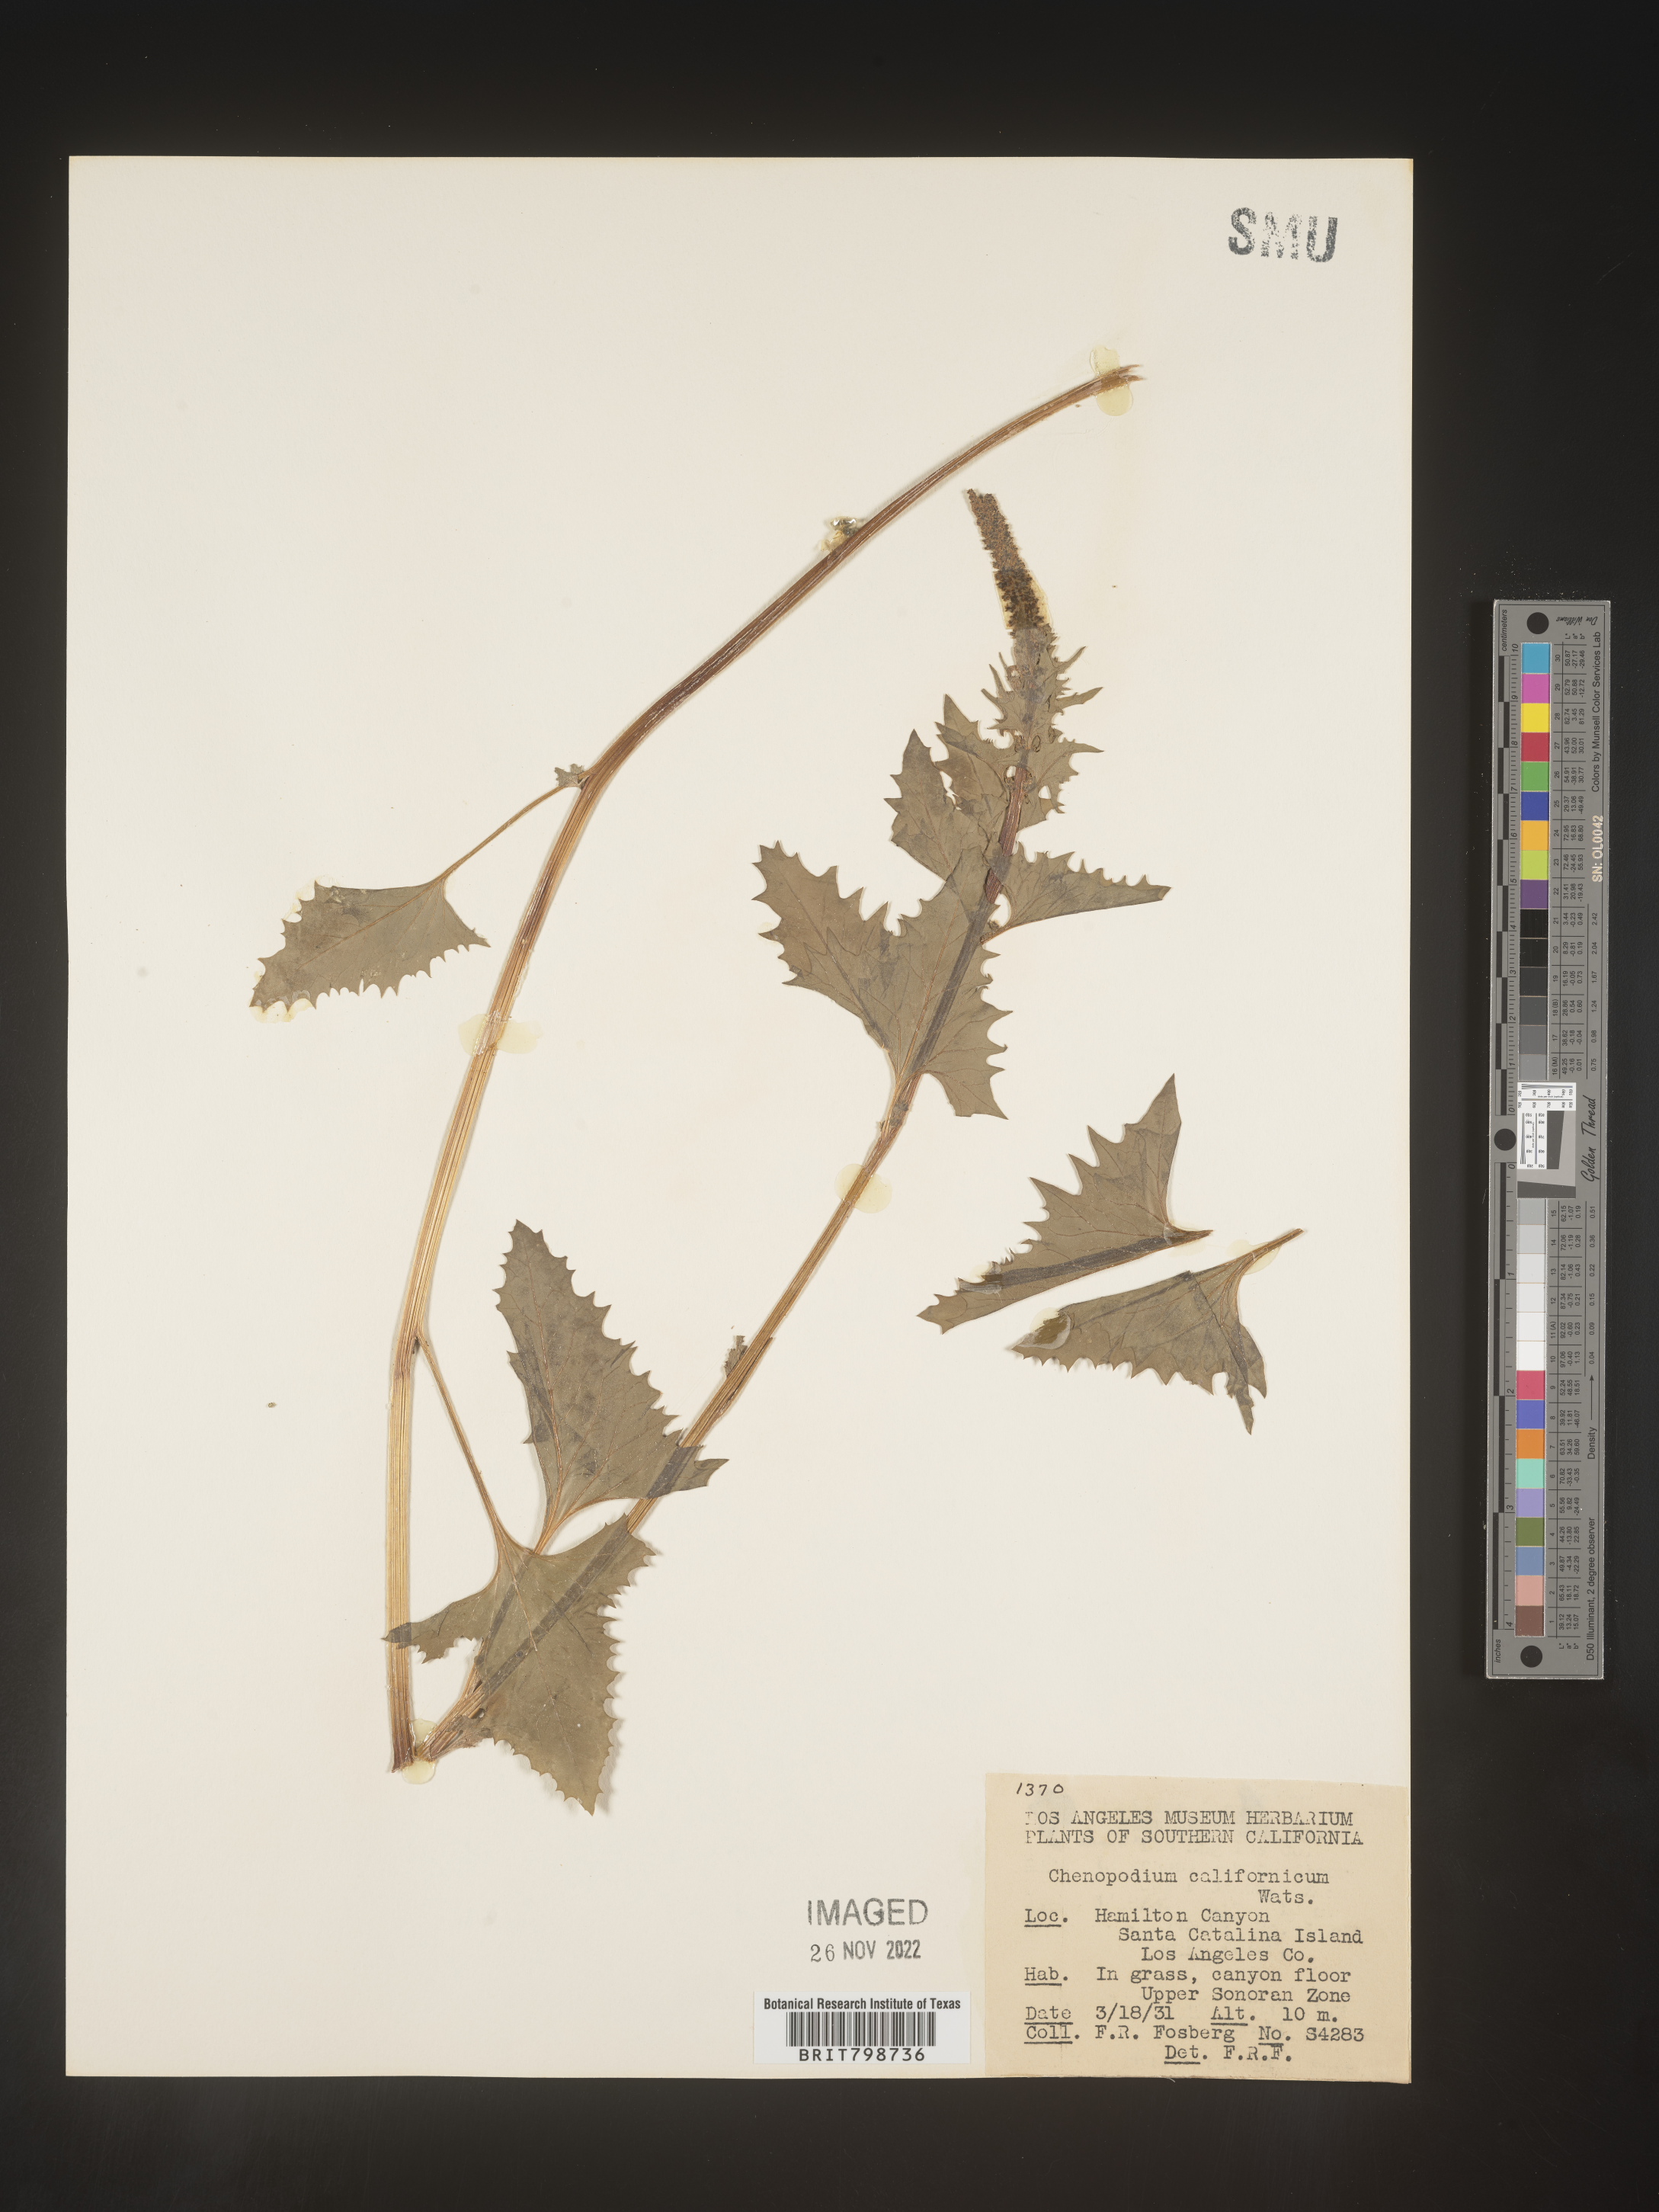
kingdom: Plantae
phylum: Tracheophyta
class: Magnoliopsida
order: Caryophyllales
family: Amaranthaceae
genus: Blitum
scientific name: Blitum californicum
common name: California goosefoot
